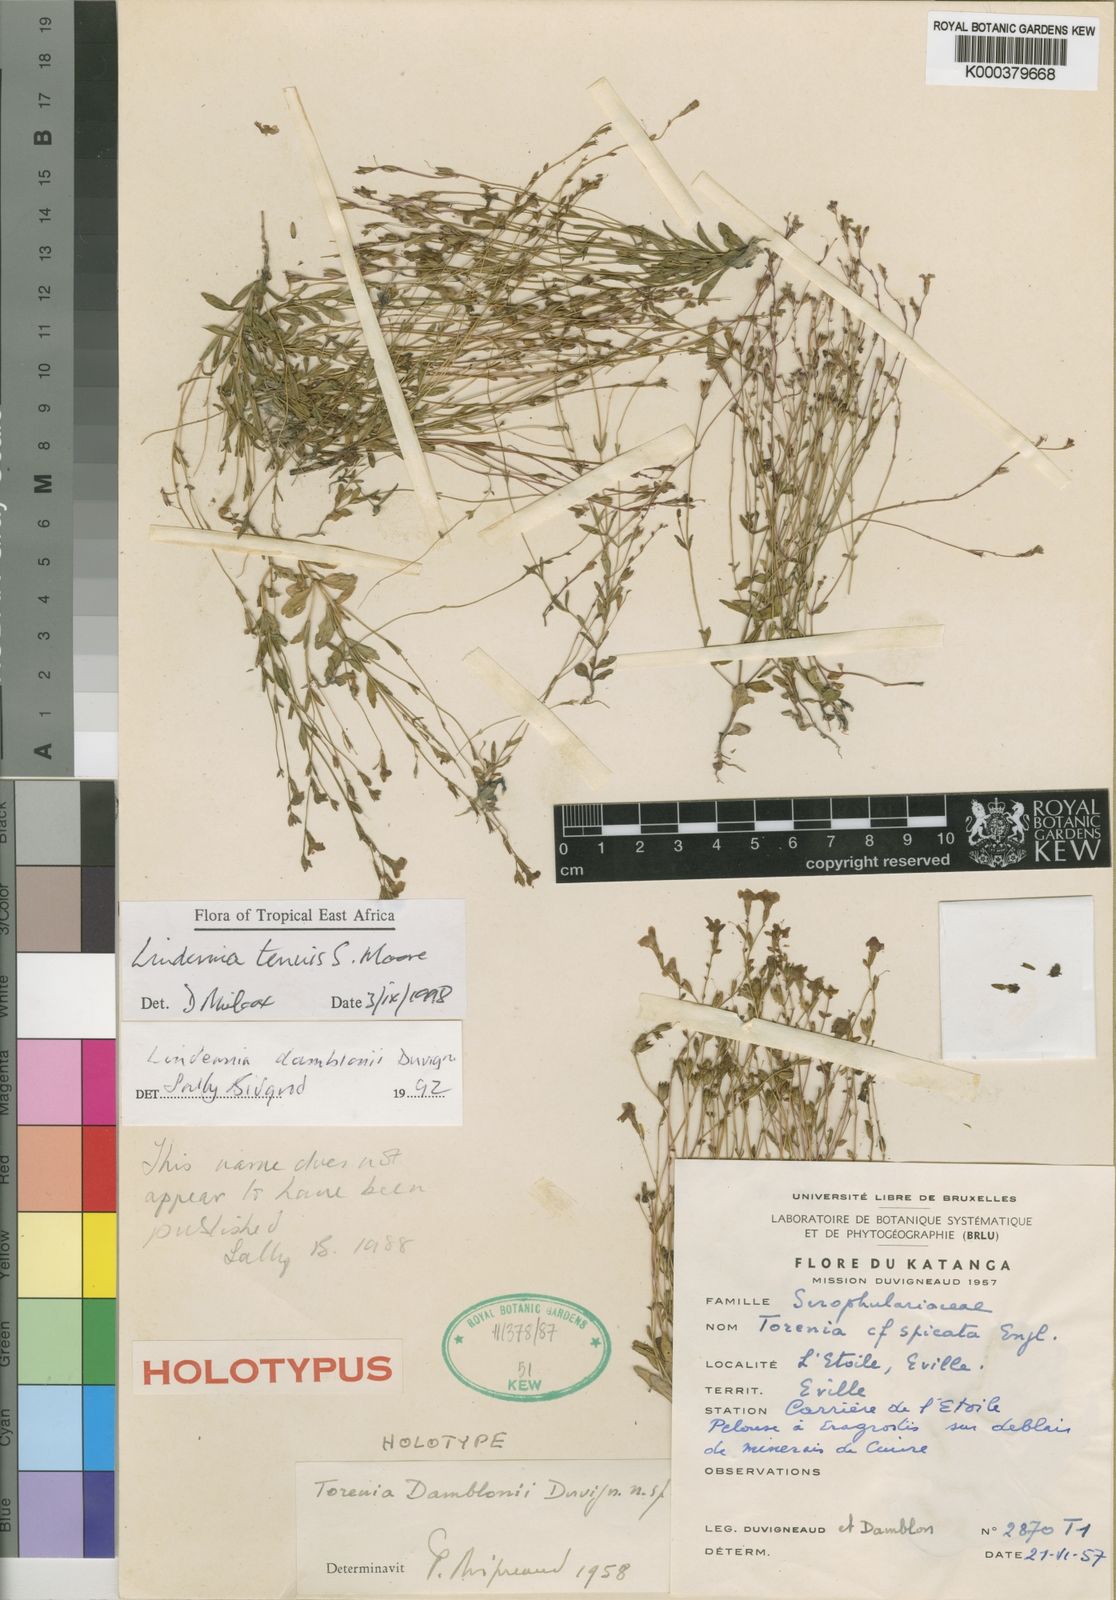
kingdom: Plantae
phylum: Tracheophyta
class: Magnoliopsida
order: Lamiales
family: Linderniaceae
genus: Crepidorhopalon
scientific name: Crepidorhopalon tenuis
